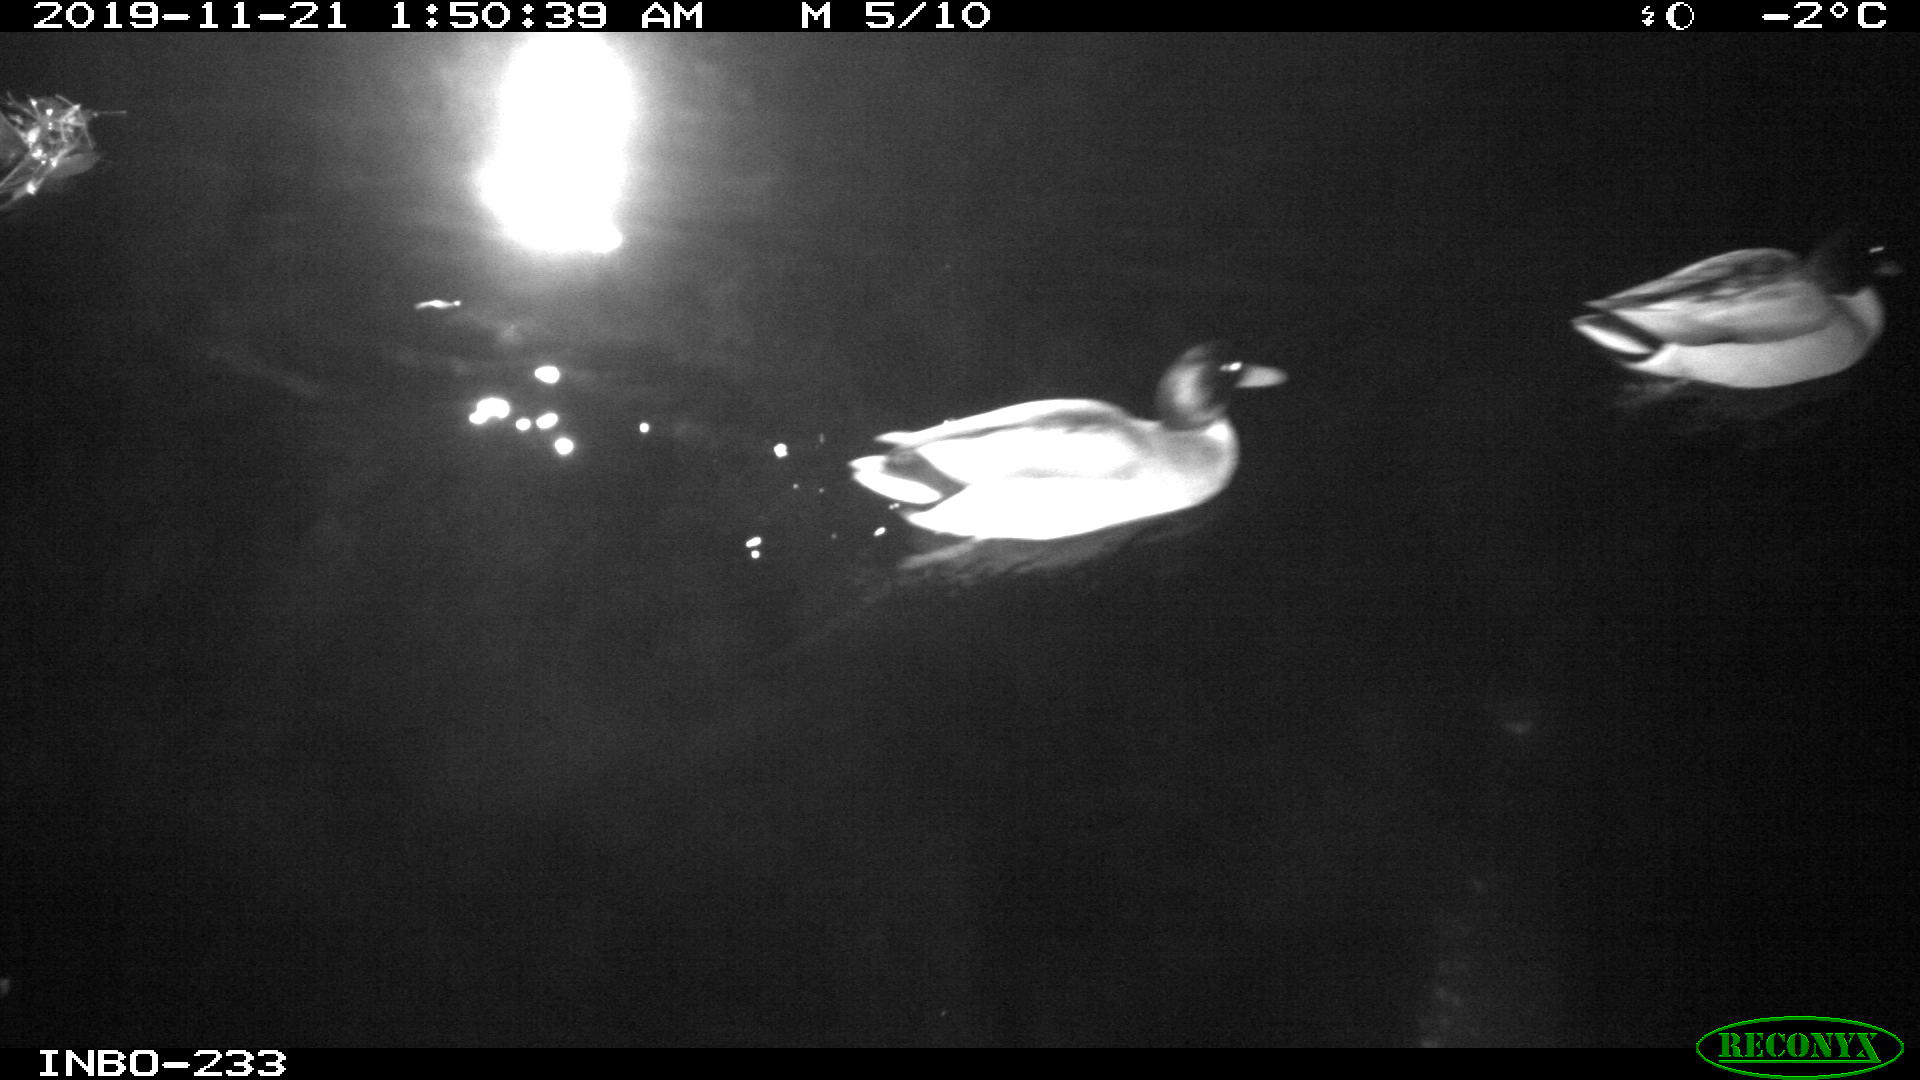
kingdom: Animalia
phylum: Chordata
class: Aves
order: Anseriformes
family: Anatidae
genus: Anas
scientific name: Anas platyrhynchos
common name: Mallard
